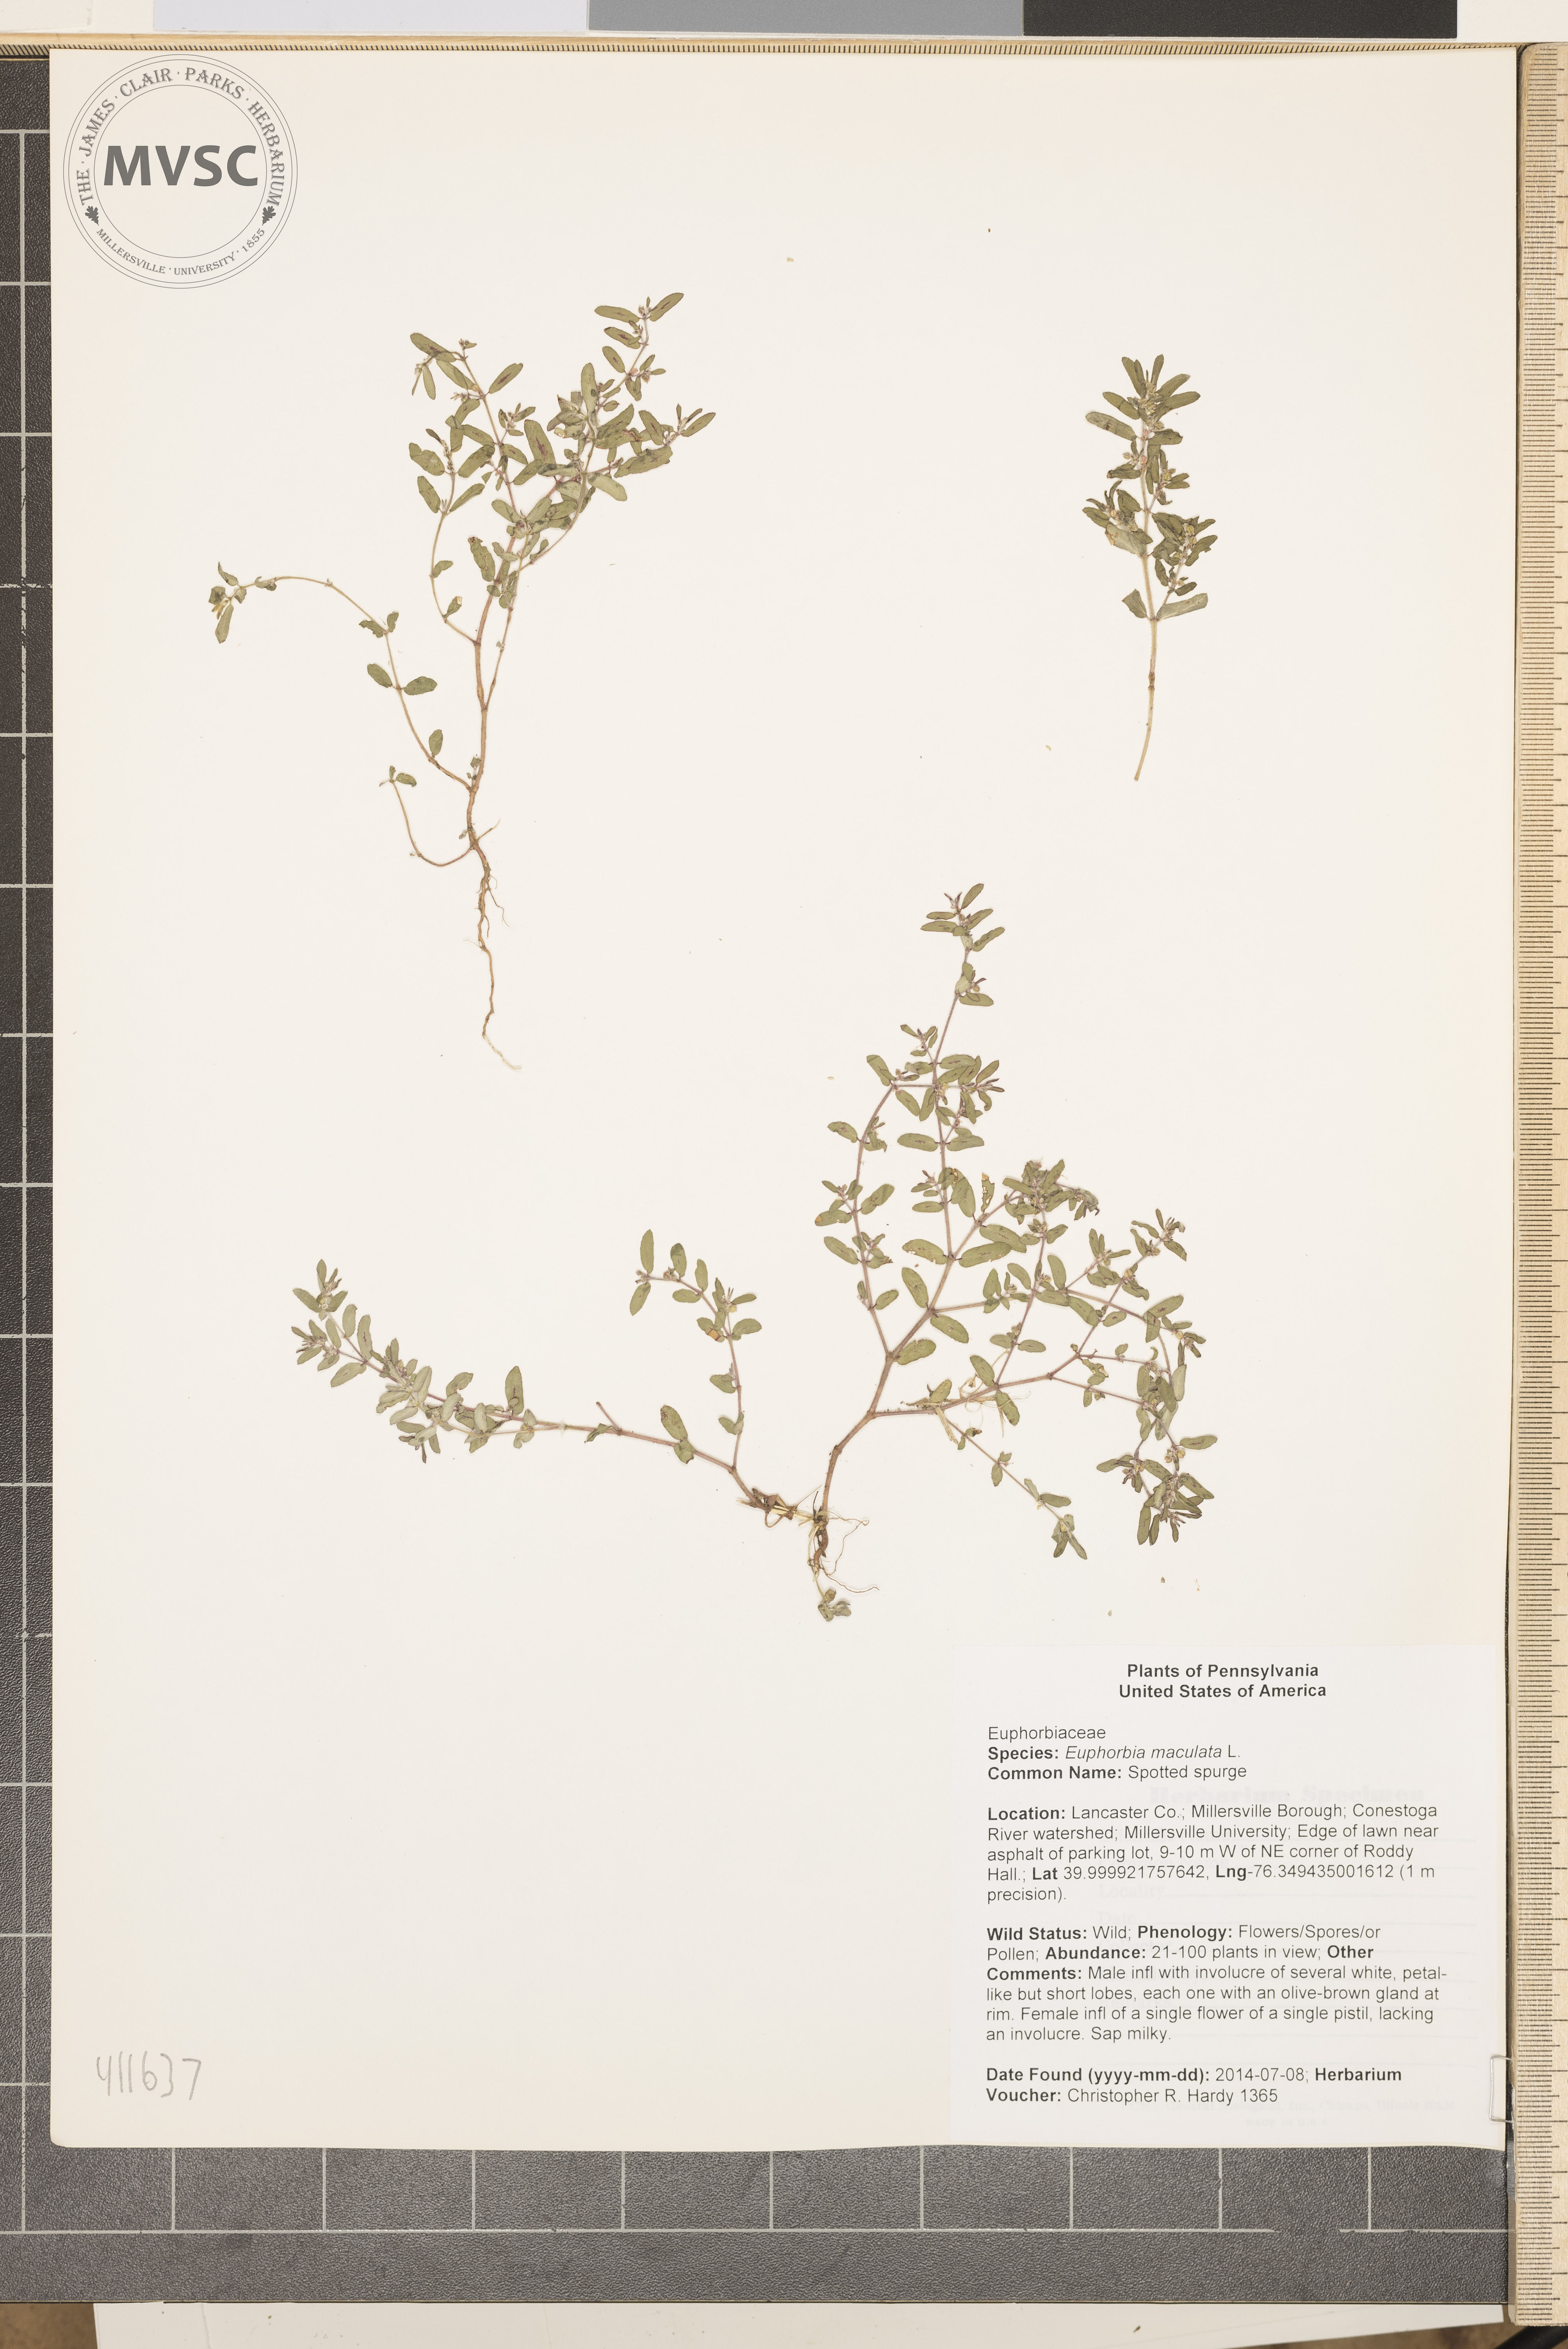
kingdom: Plantae
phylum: Tracheophyta
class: Magnoliopsida
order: Malpighiales
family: Euphorbiaceae
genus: Euphorbia
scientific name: Euphorbia maculata
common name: Spotted spurge
